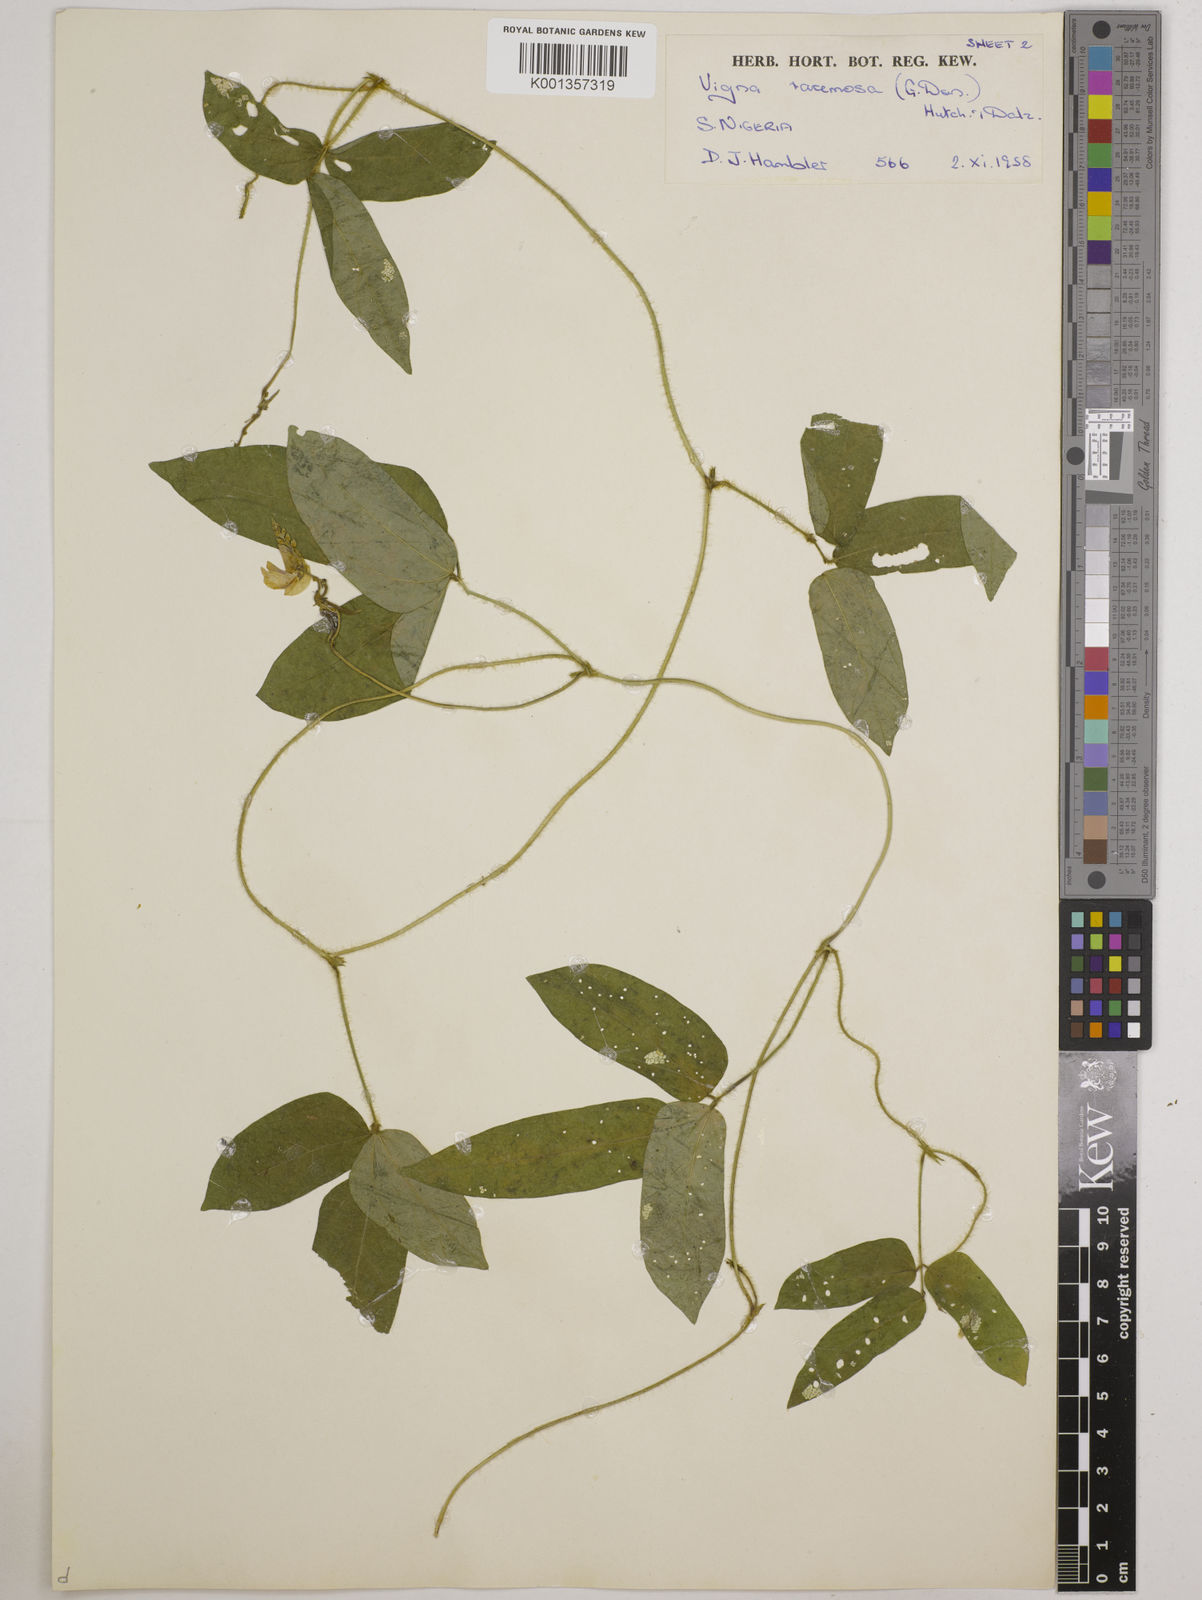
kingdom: Plantae
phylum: Tracheophyta
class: Magnoliopsida
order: Fabales
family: Fabaceae
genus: Vigna
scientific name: Vigna racemosa
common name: Beans not eaten
